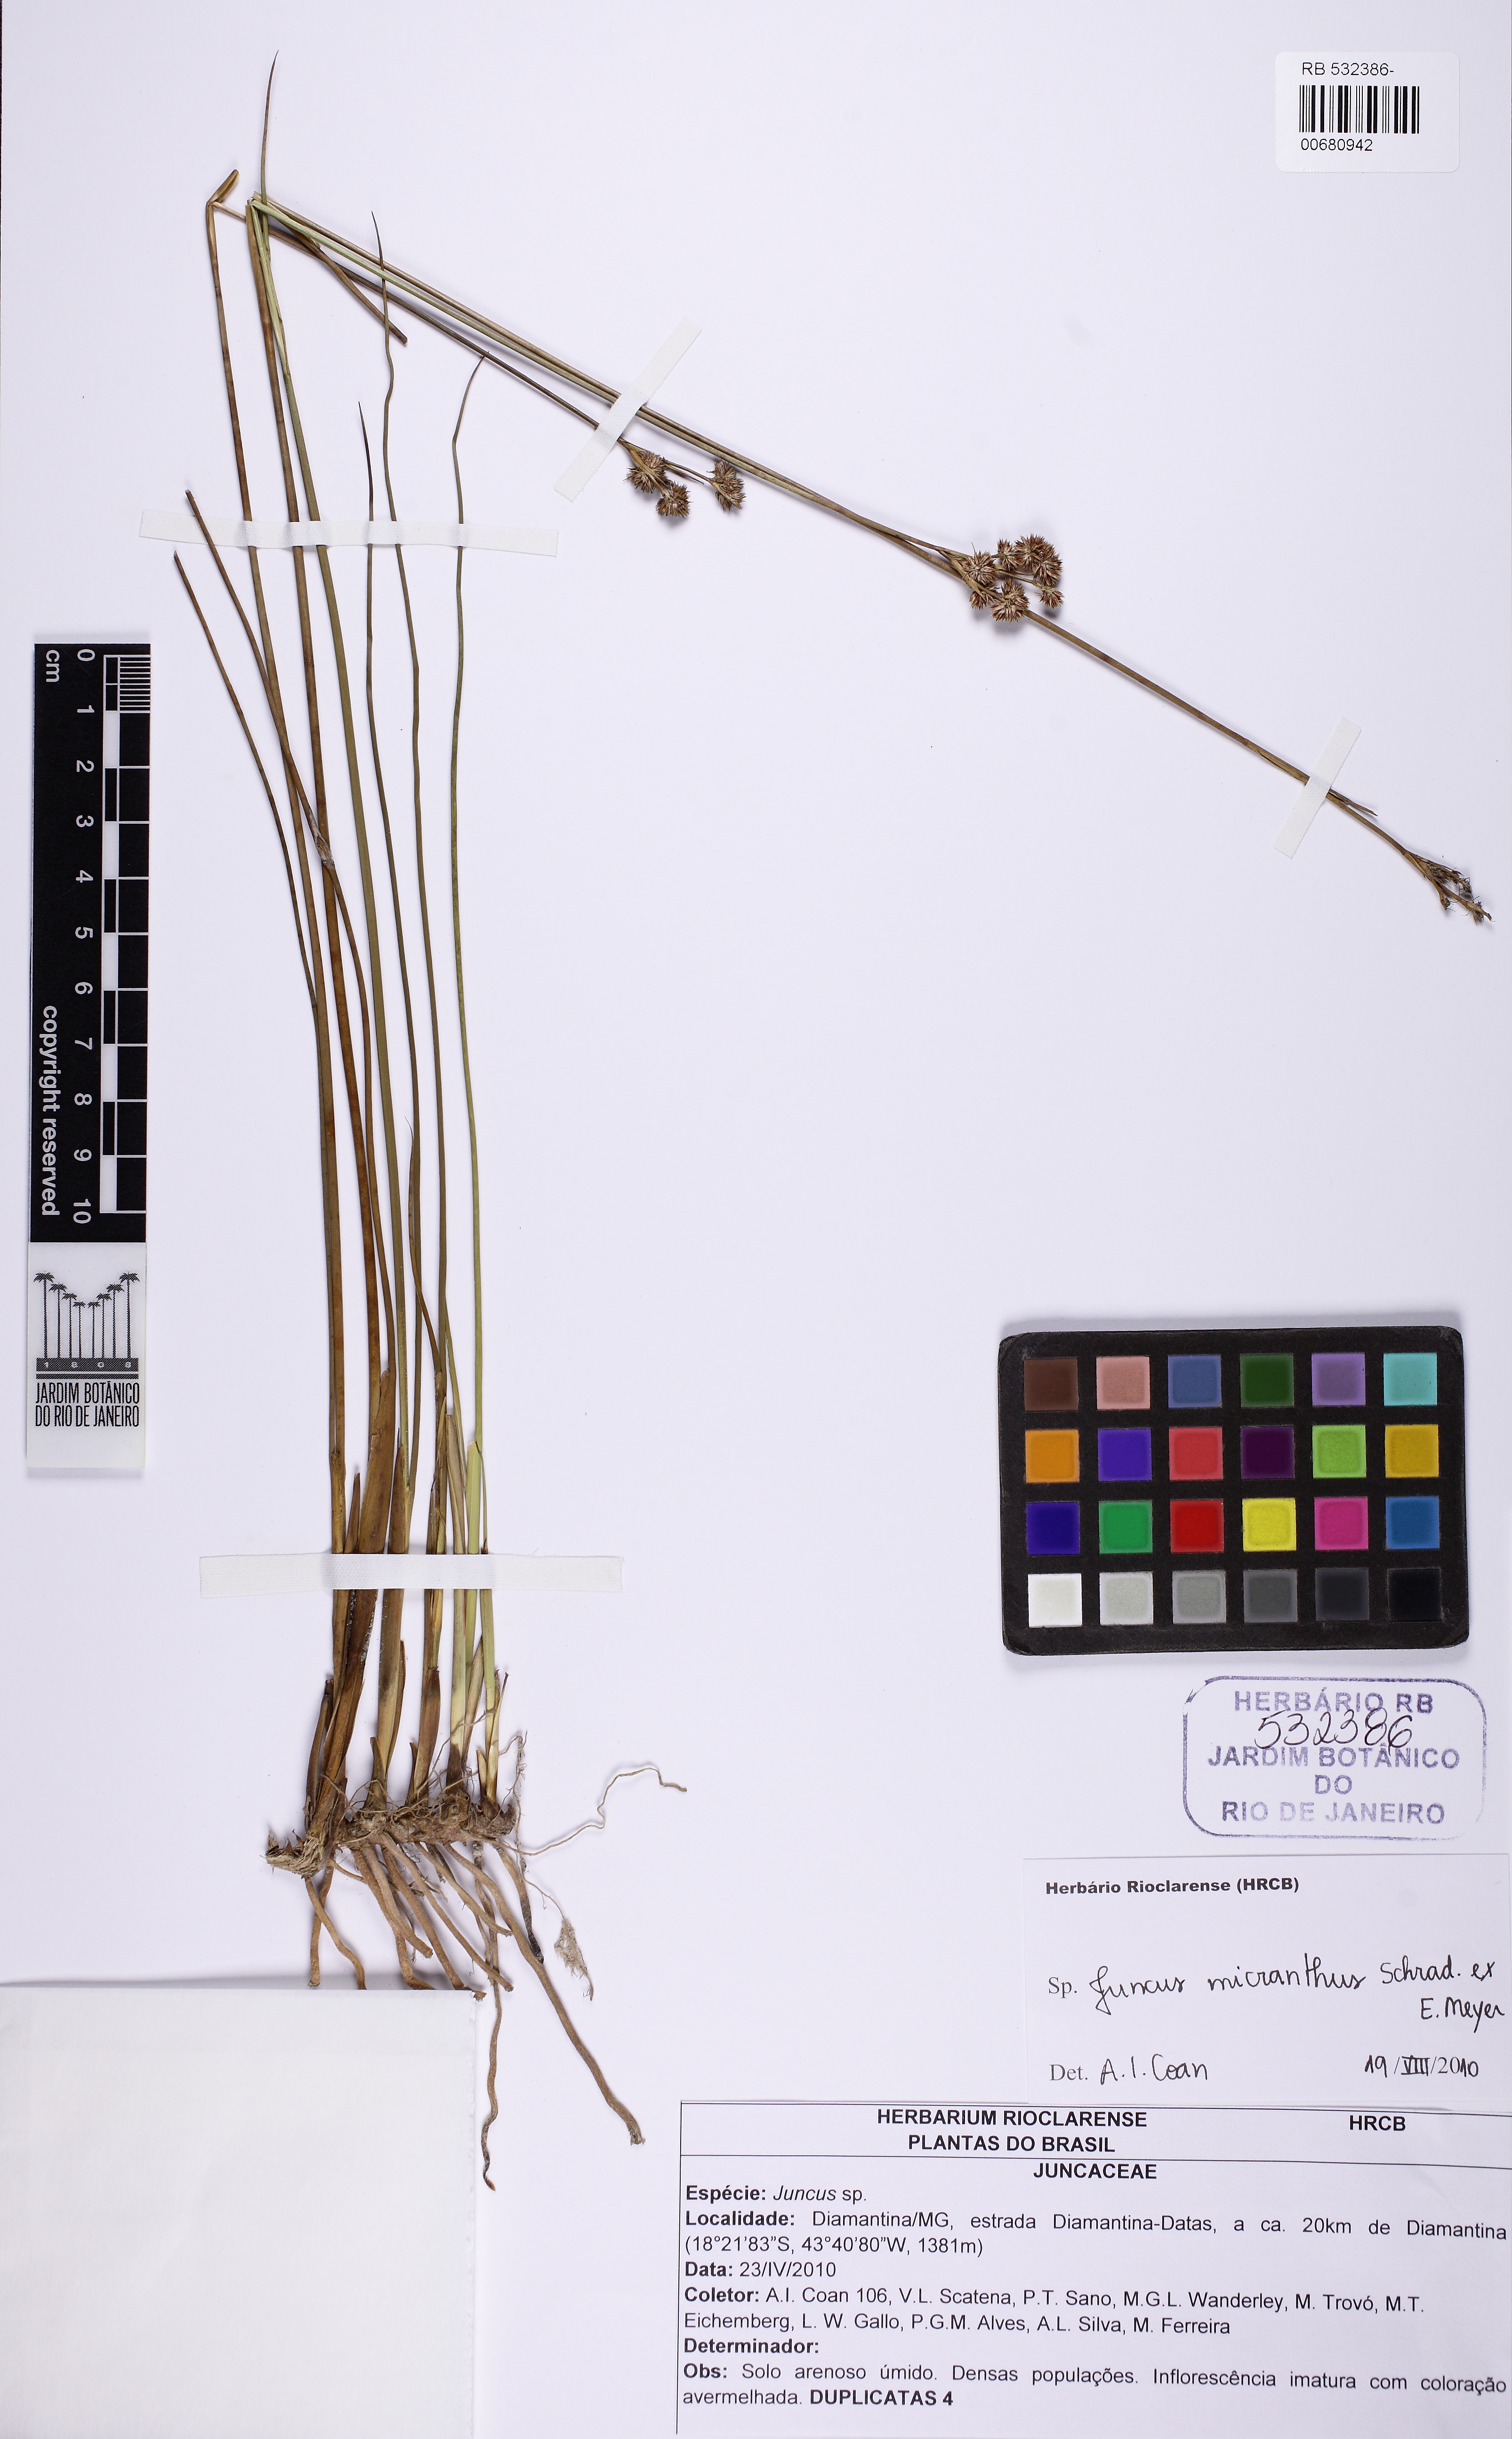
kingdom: Plantae
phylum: Tracheophyta
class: Liliopsida
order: Poales
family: Juncaceae
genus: Juncus
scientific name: Juncus micranthus
